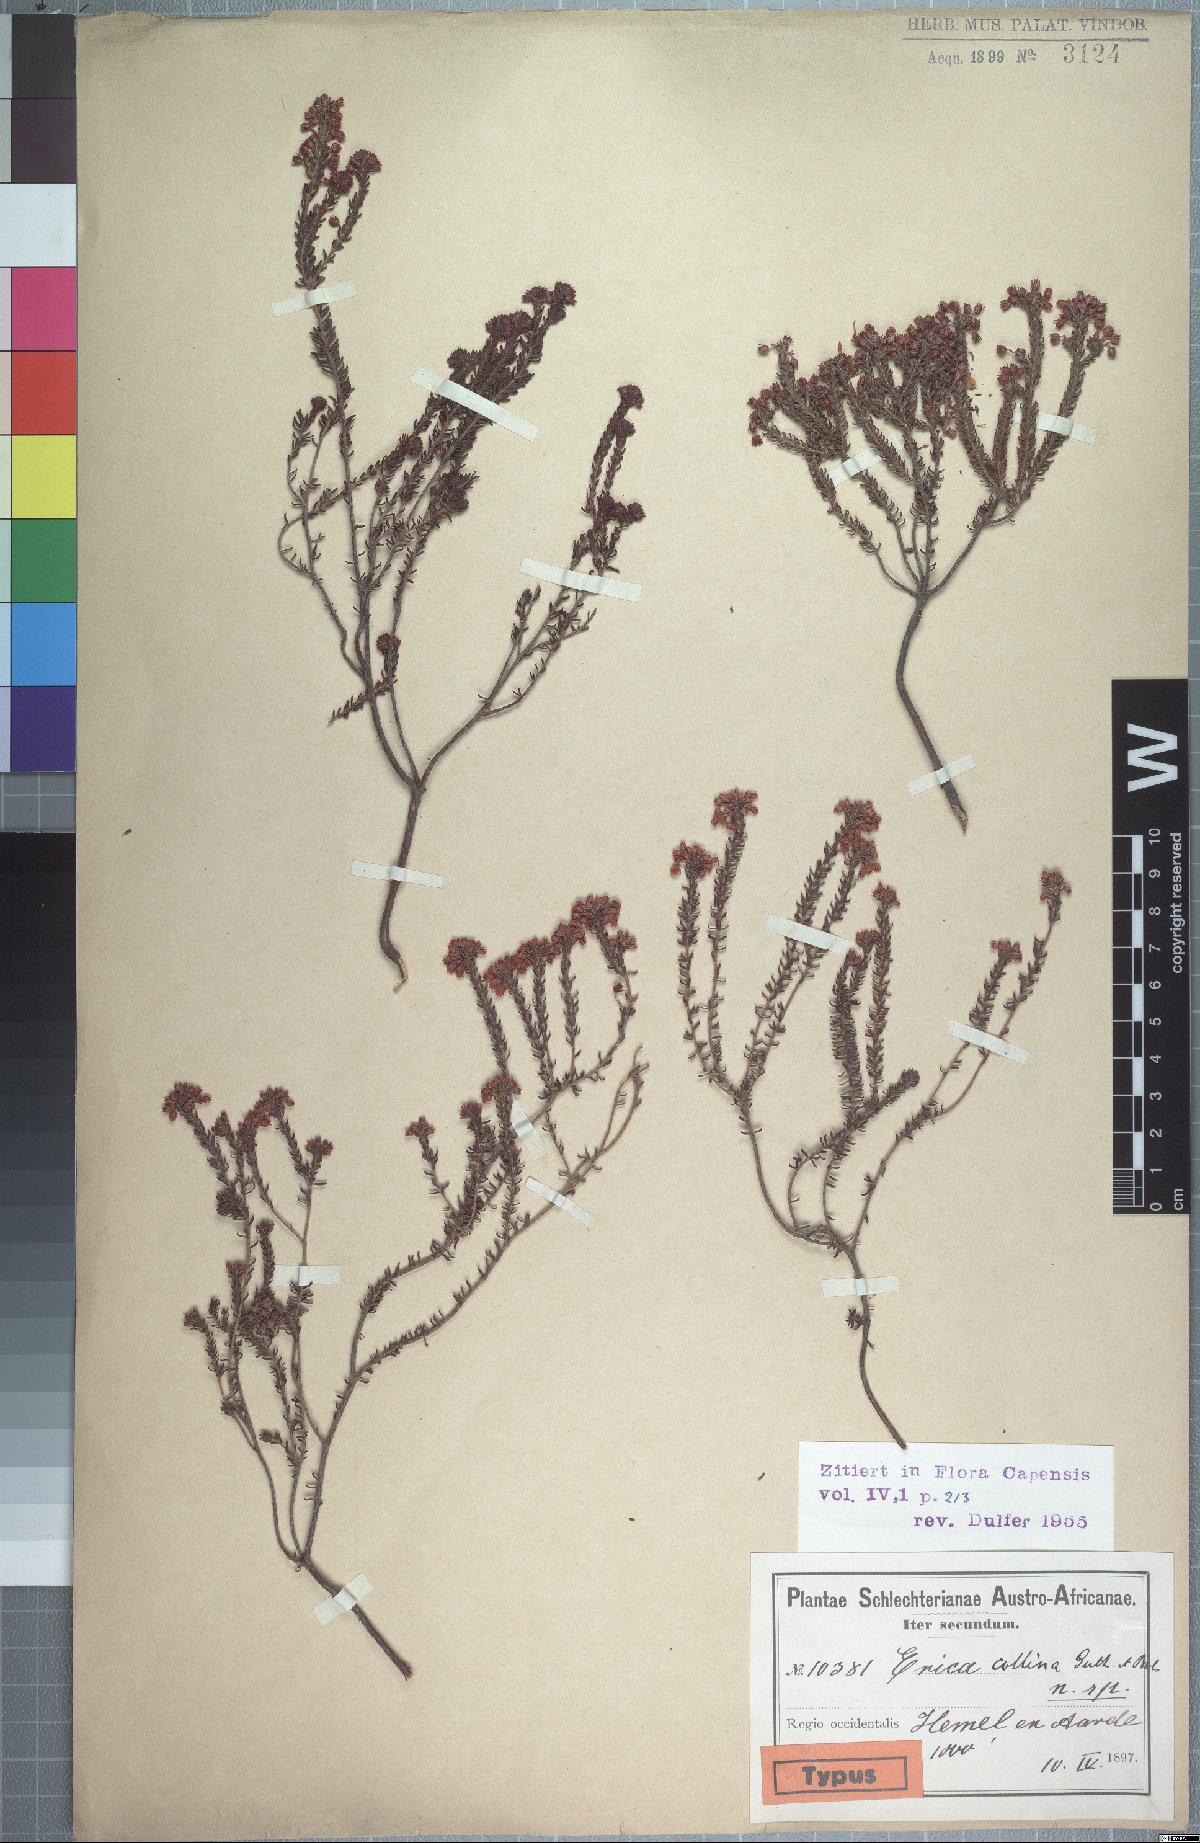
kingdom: Plantae
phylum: Tracheophyta
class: Magnoliopsida
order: Ericales
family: Ericaceae
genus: Erica
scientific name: Erica collina
